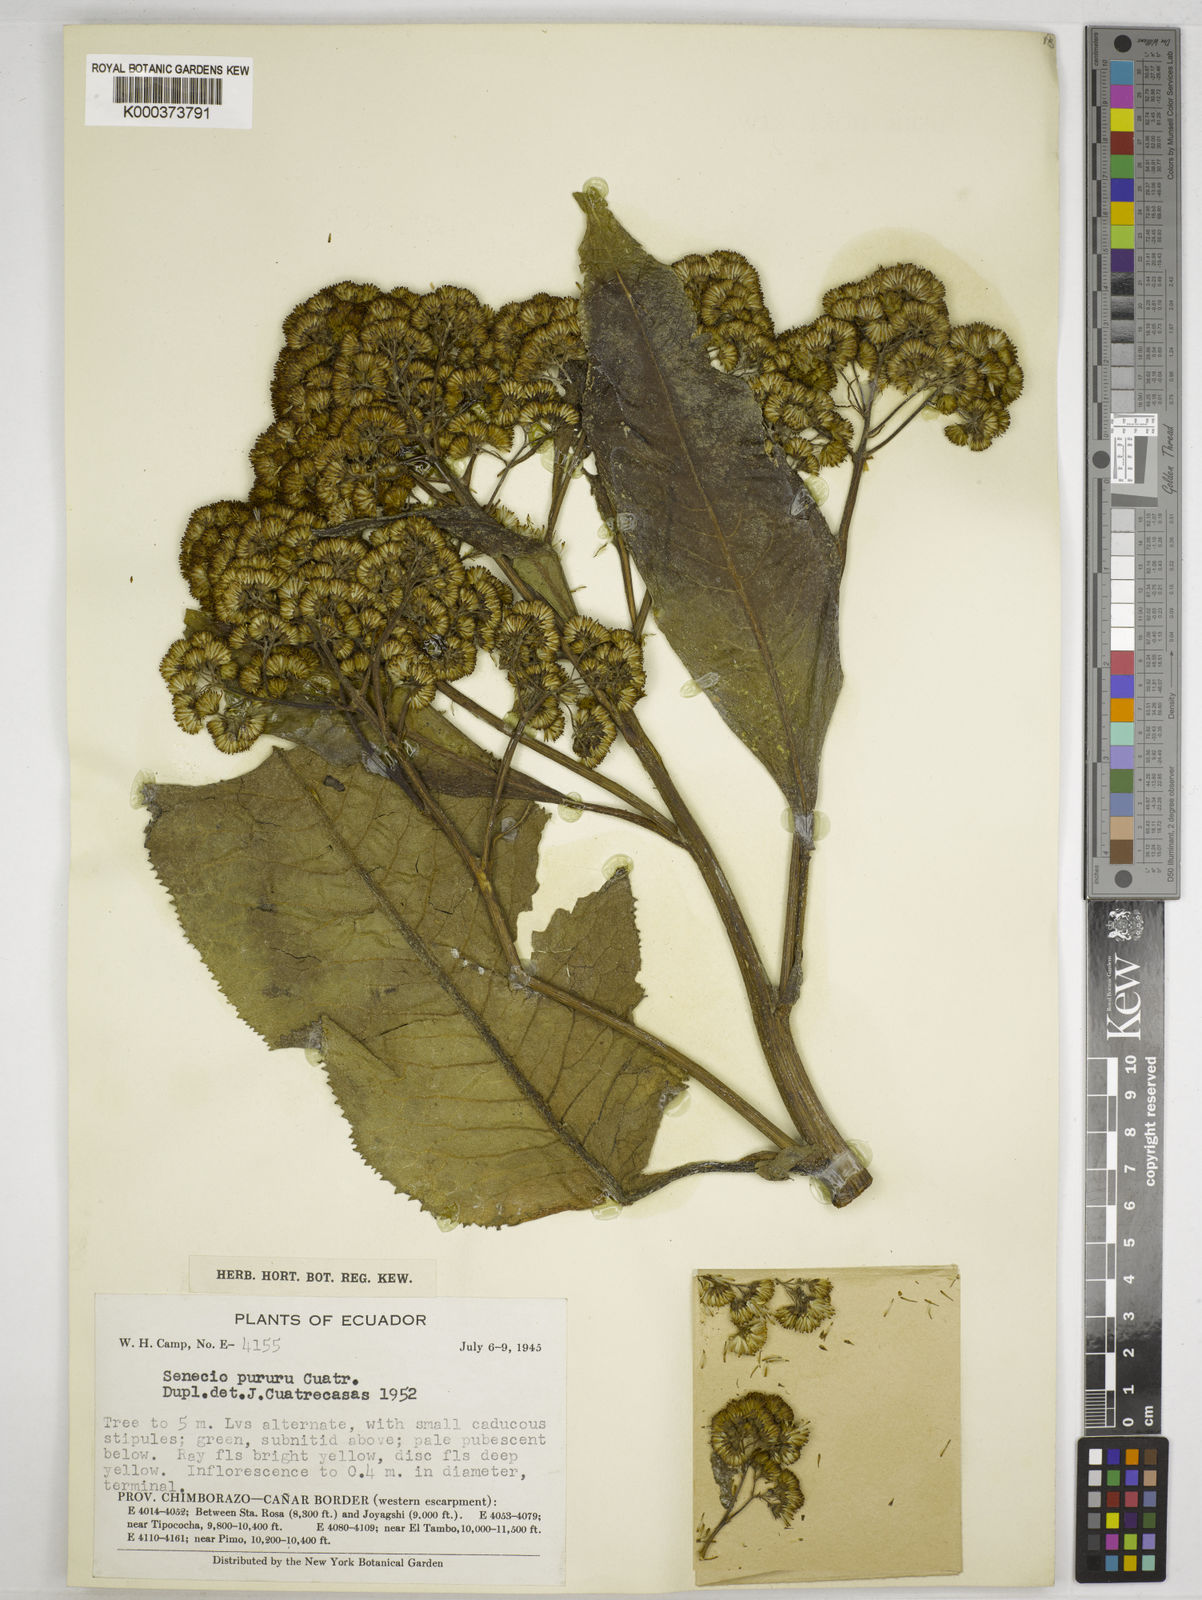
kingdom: Plantae
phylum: Tracheophyta
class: Magnoliopsida
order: Asterales
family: Asteraceae
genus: Dendrophorbium
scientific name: Dendrophorbium pururu
